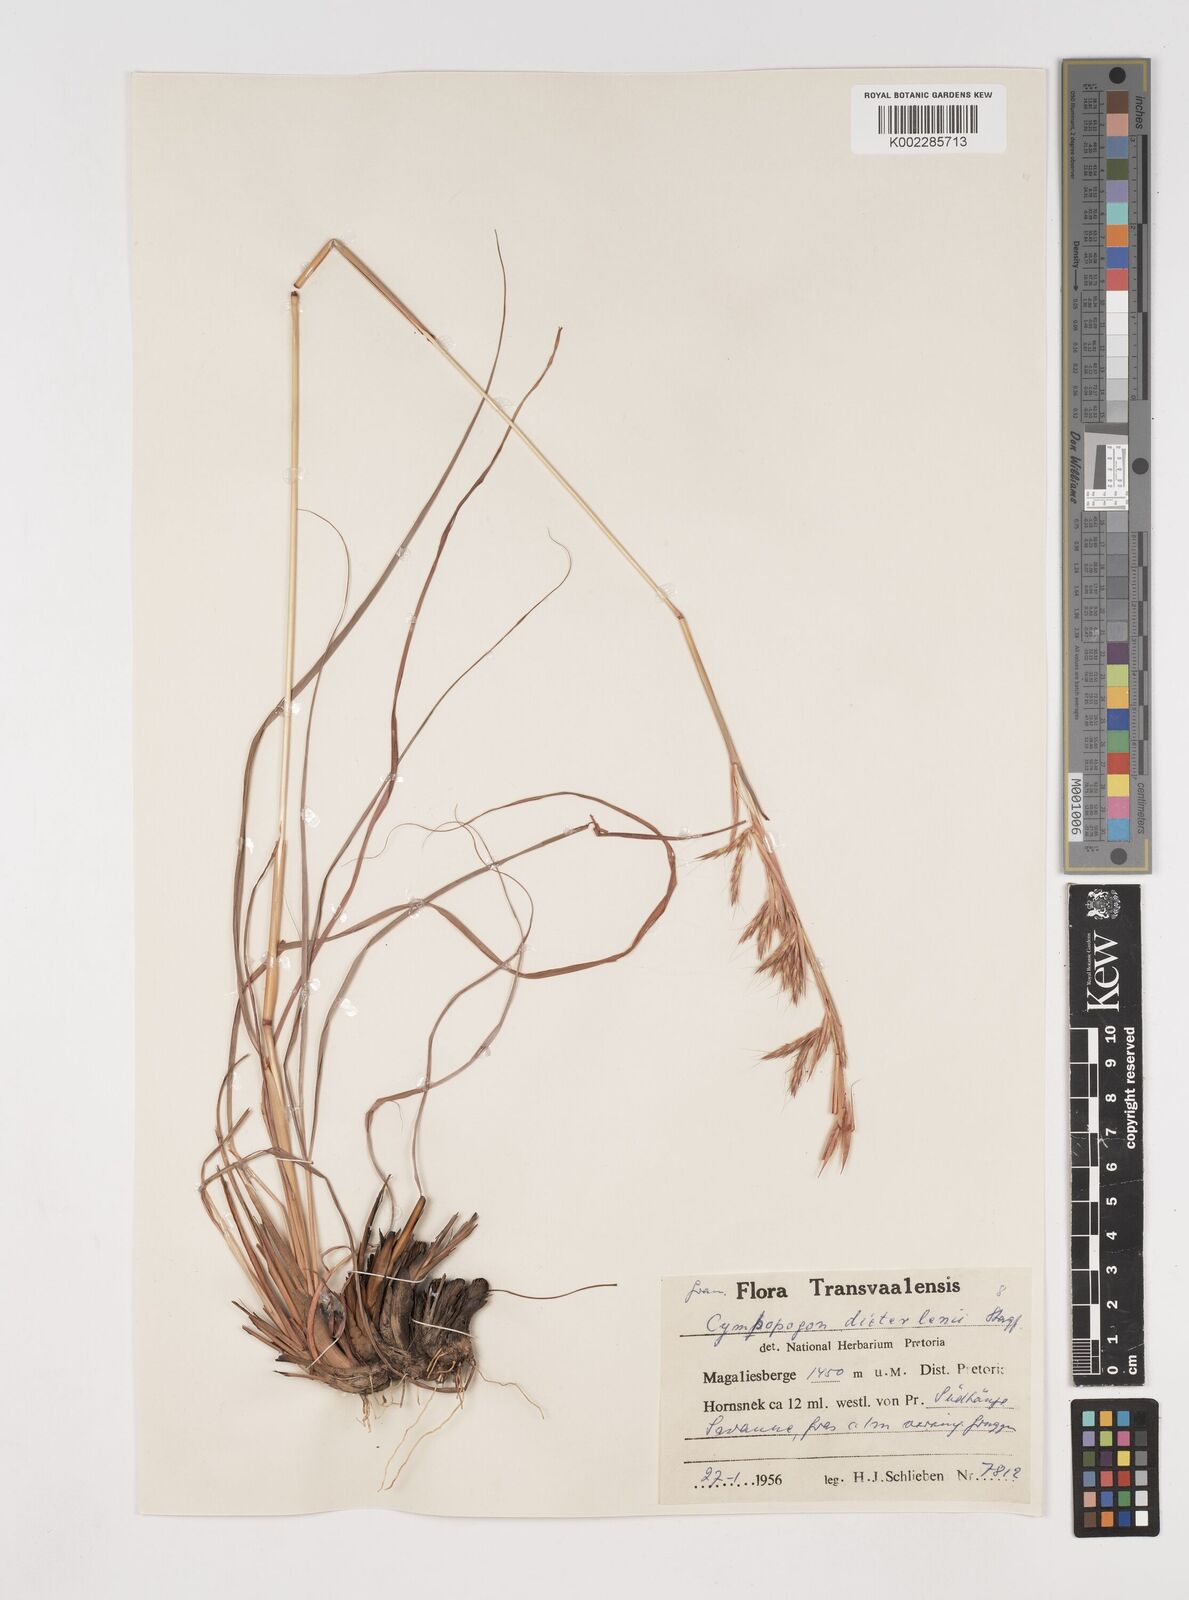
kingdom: Plantae
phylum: Tracheophyta
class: Liliopsida
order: Poales
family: Poaceae
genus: Cymbopogon
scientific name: Cymbopogon dieterlenii
